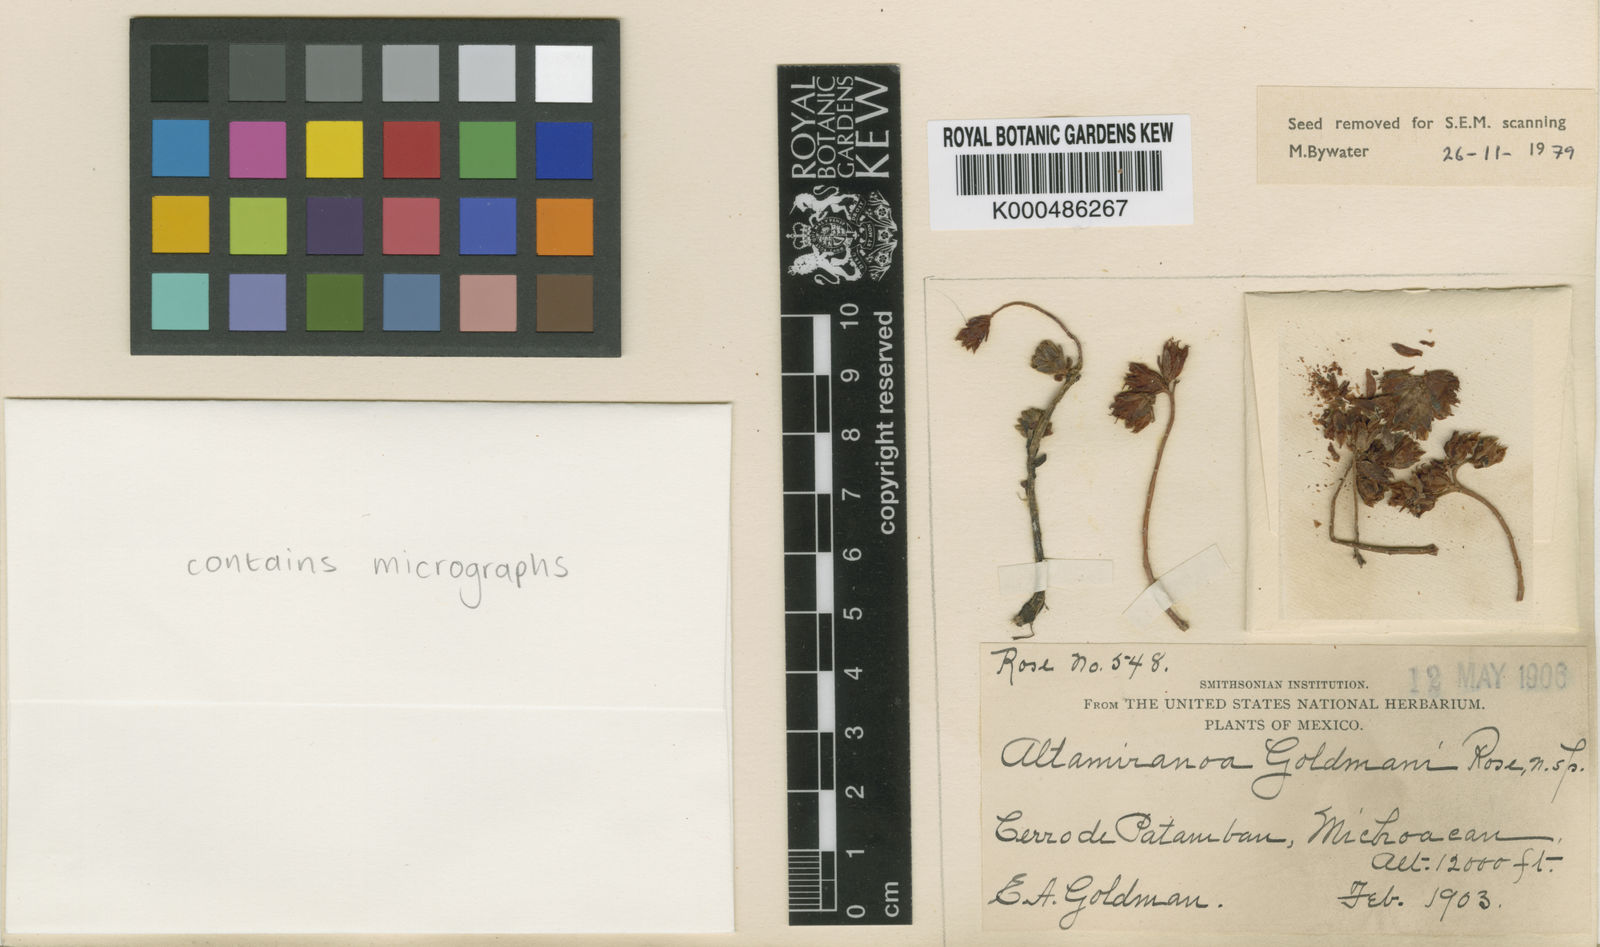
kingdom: Plantae
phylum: Tracheophyta
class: Magnoliopsida
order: Saxifragales
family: Crassulaceae
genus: Sedum
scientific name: Sedum goldmanii
